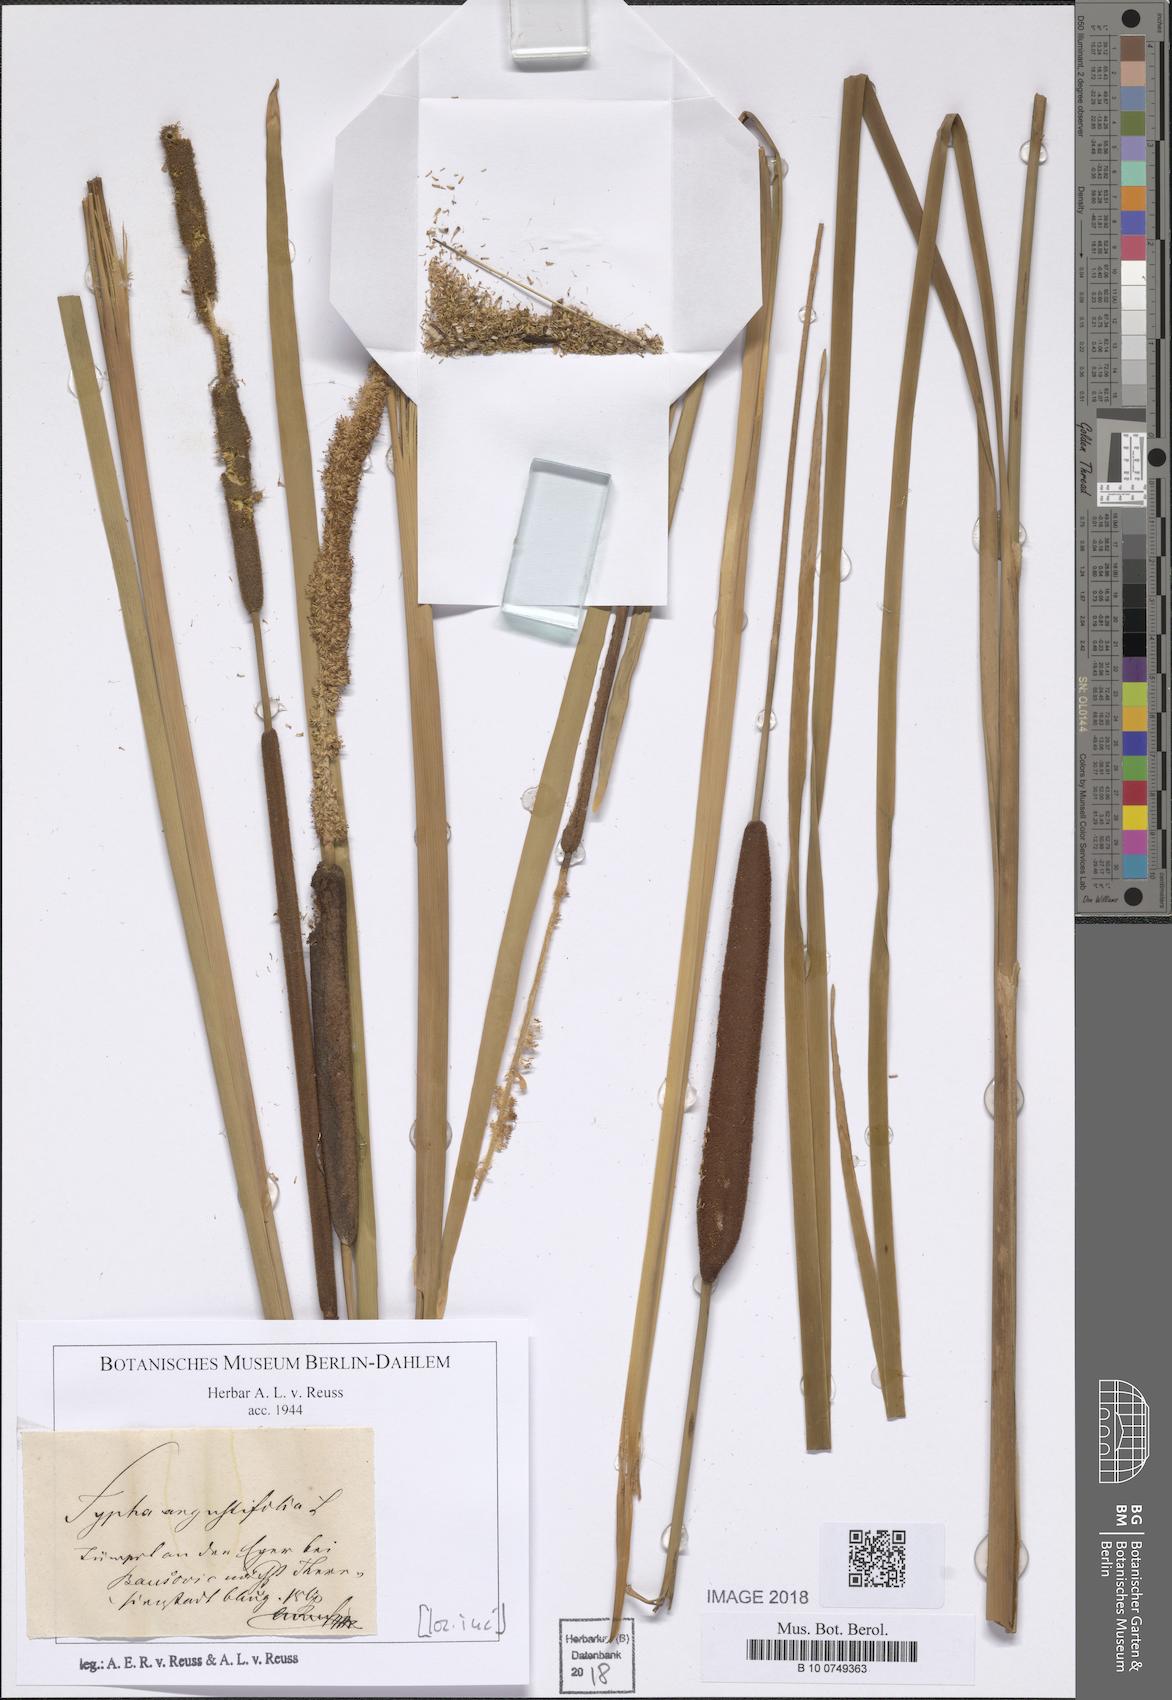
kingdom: Plantae
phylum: Tracheophyta
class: Liliopsida
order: Poales
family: Typhaceae
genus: Typha
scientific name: Typha angustifolia
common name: Lesser bulrush
